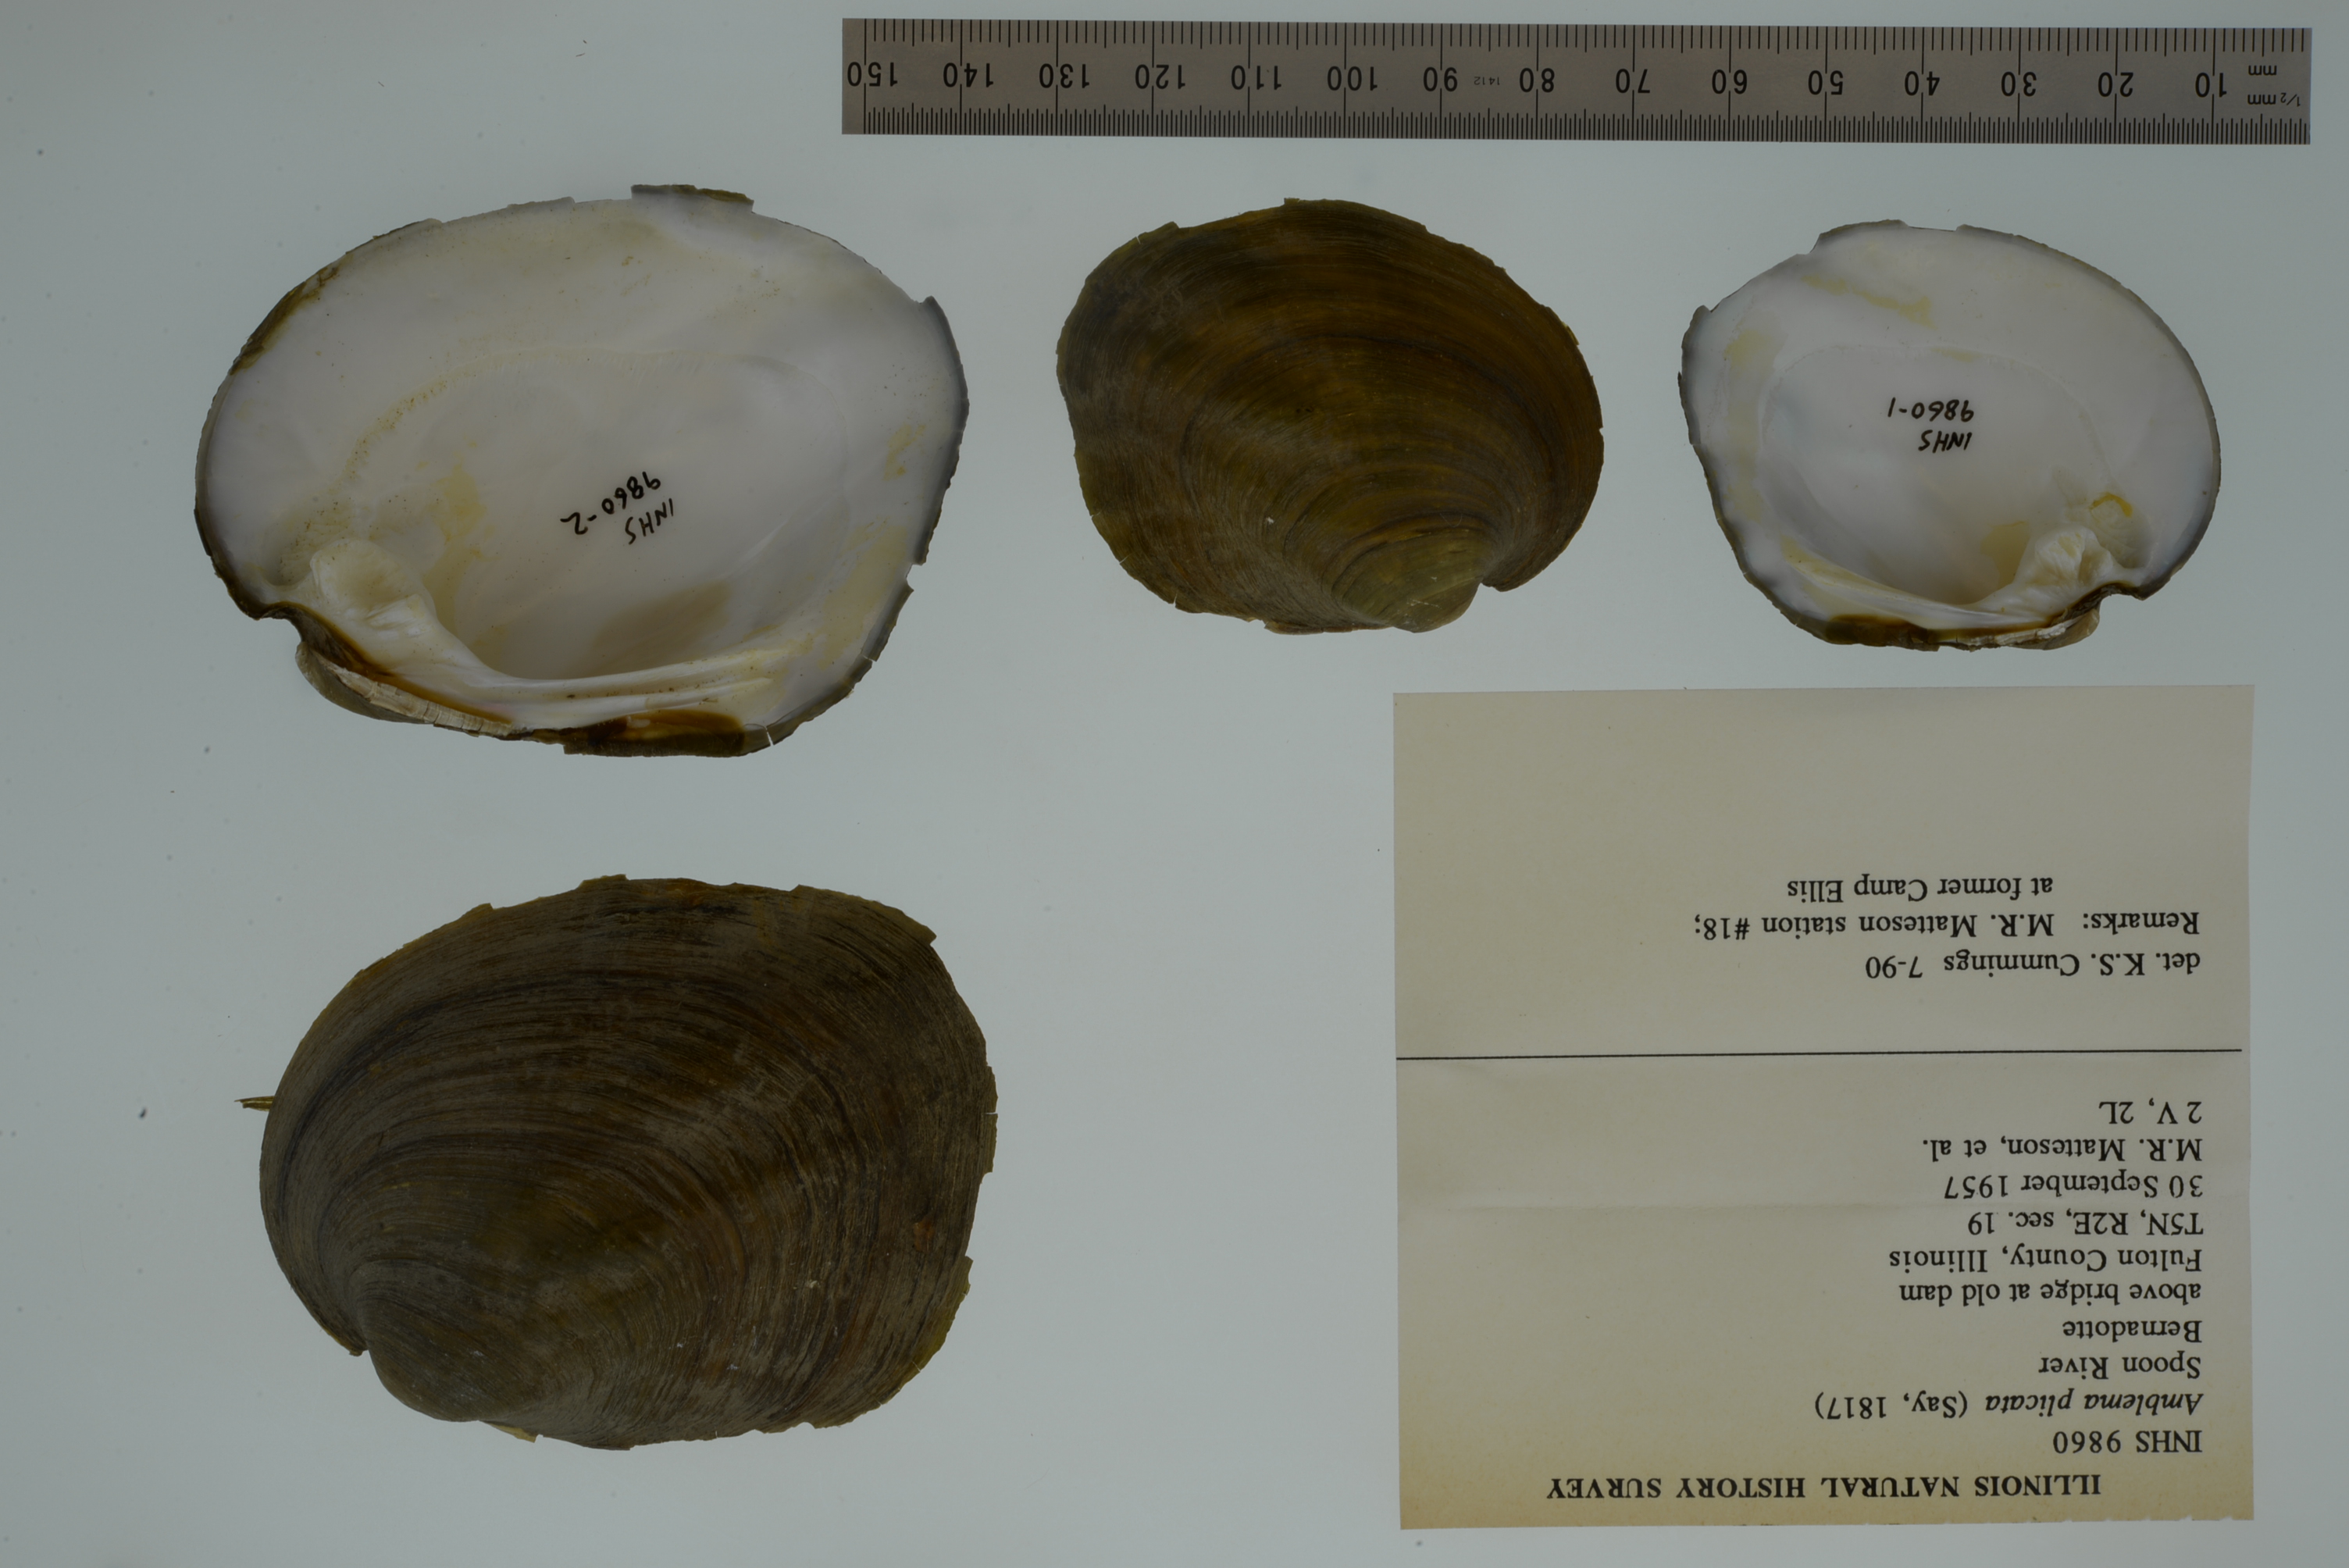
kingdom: Animalia
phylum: Mollusca
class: Bivalvia
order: Unionida
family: Unionidae
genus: Amblema
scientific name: Amblema plicata
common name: Threeridge
